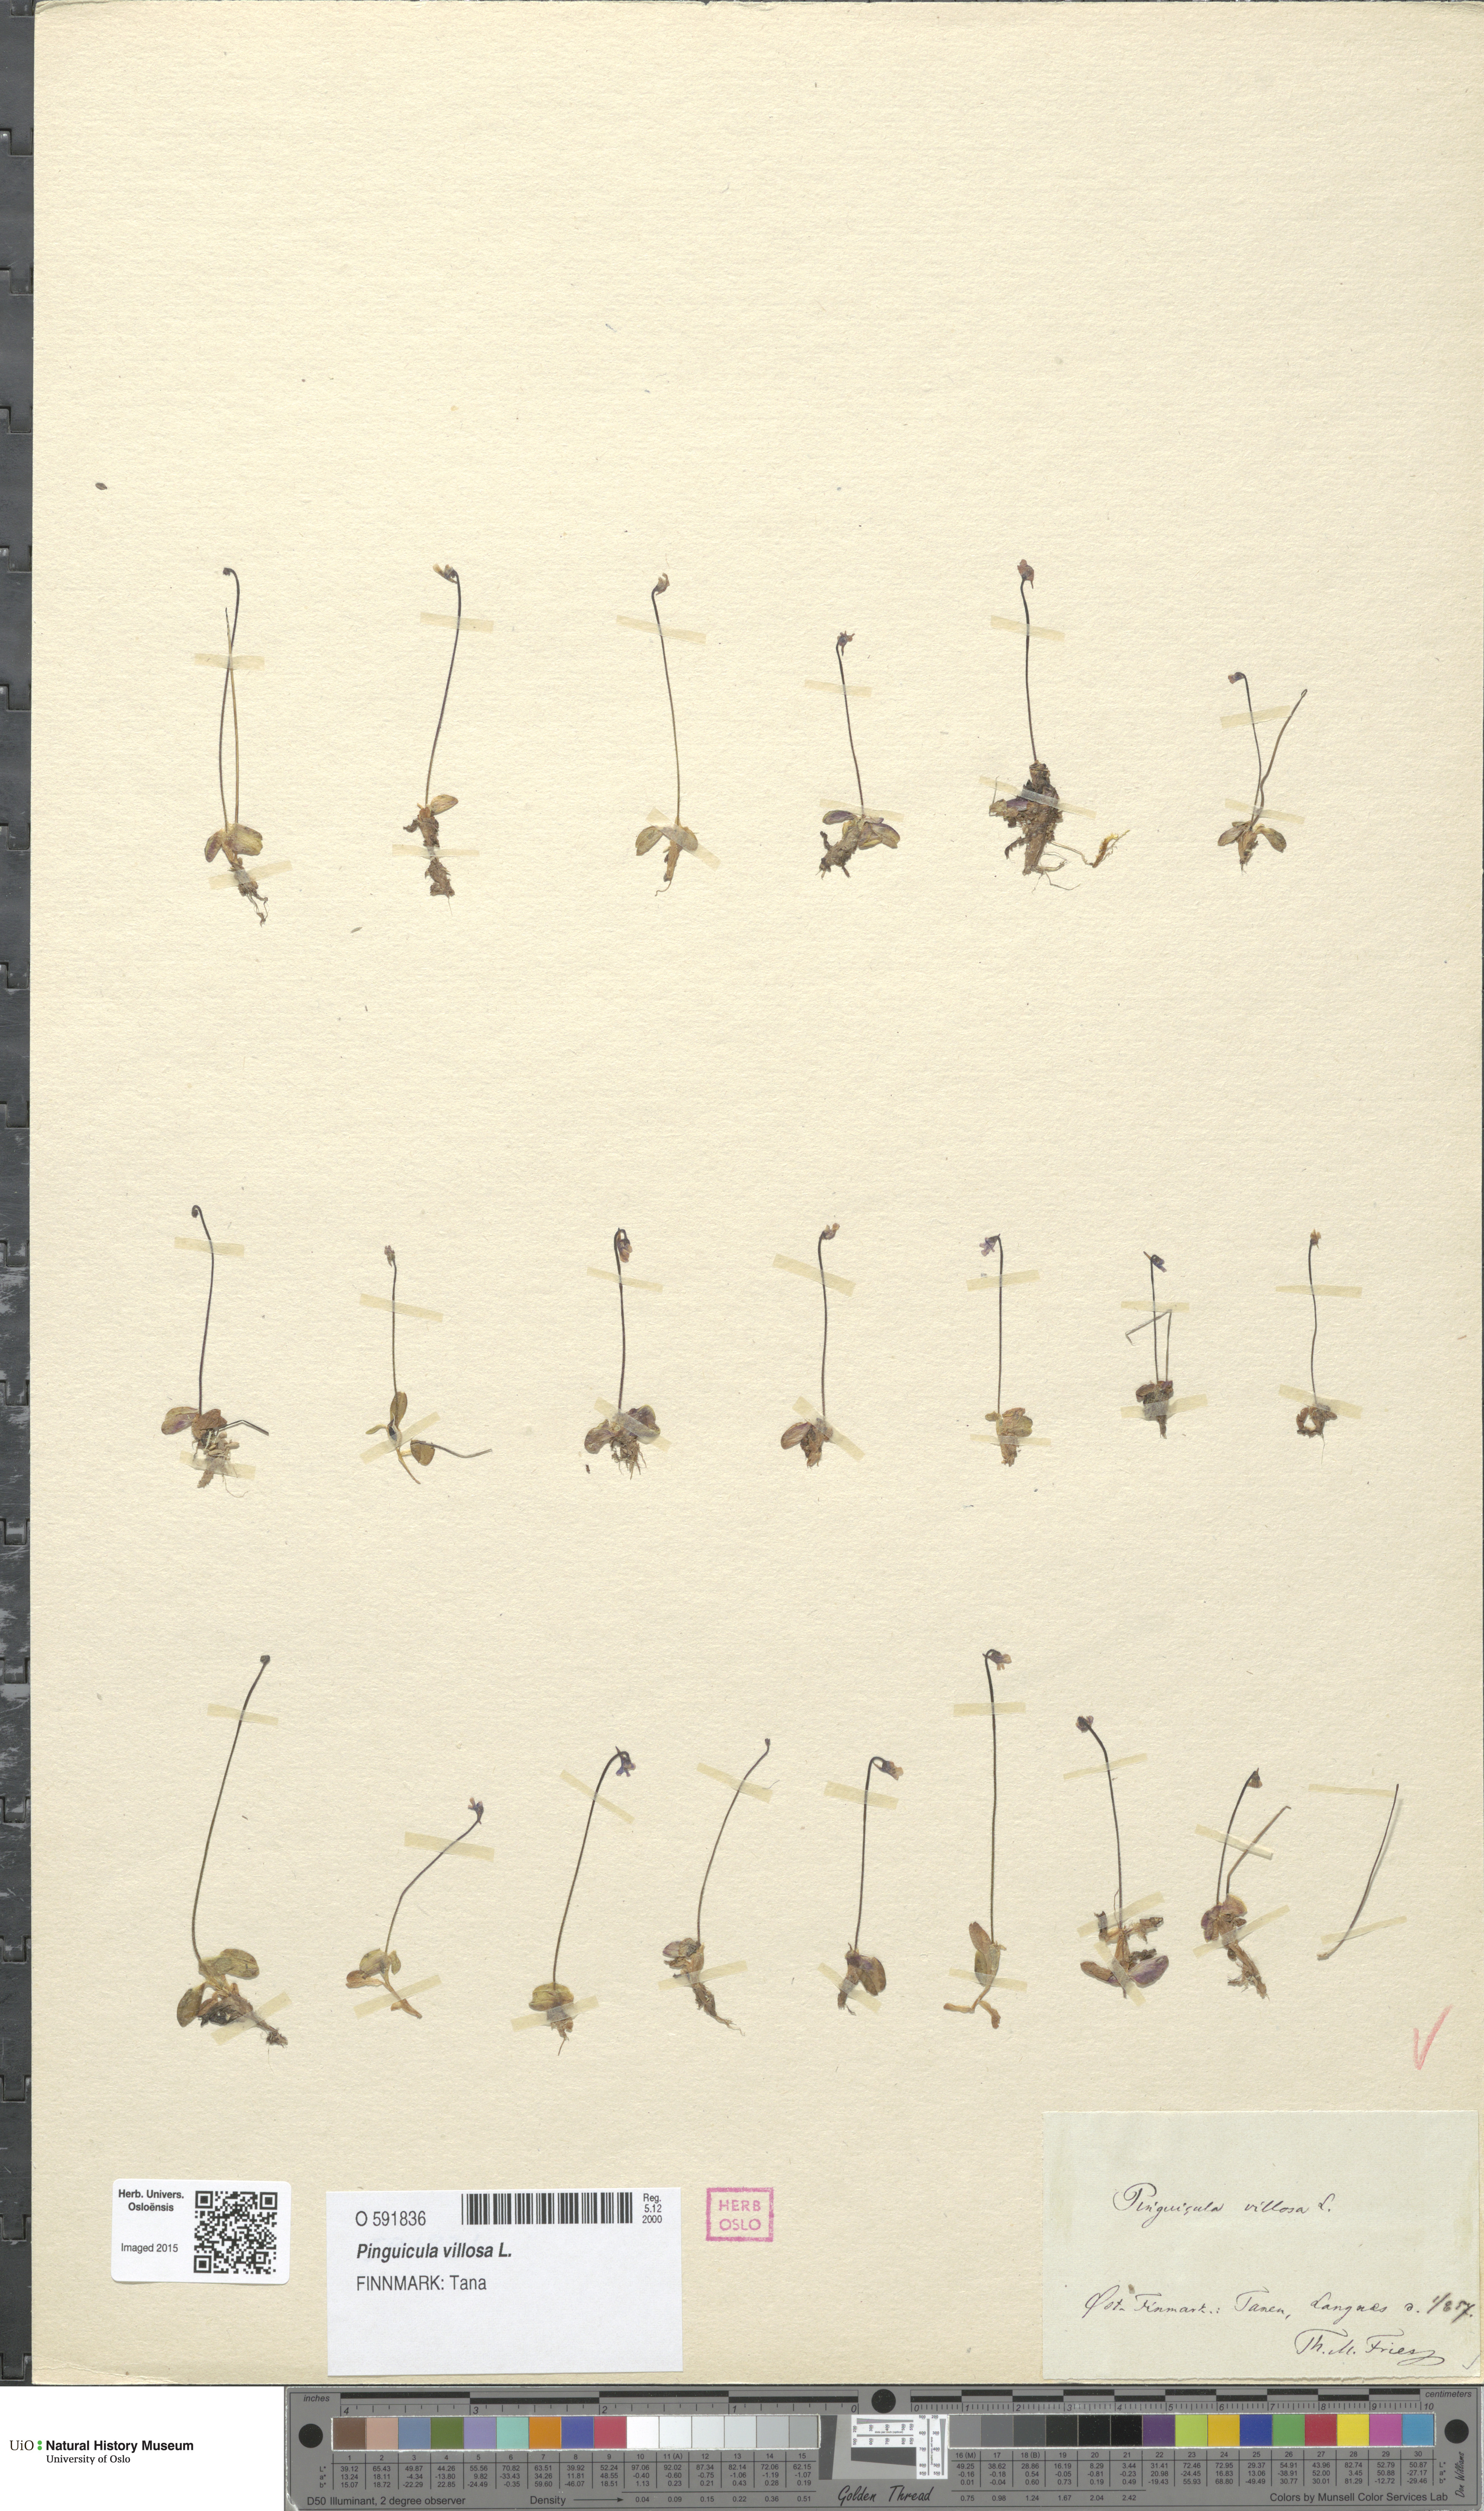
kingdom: Plantae
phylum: Tracheophyta
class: Magnoliopsida
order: Lamiales
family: Lentibulariaceae
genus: Pinguicula
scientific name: Pinguicula villosa
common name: Hairy butterwort
